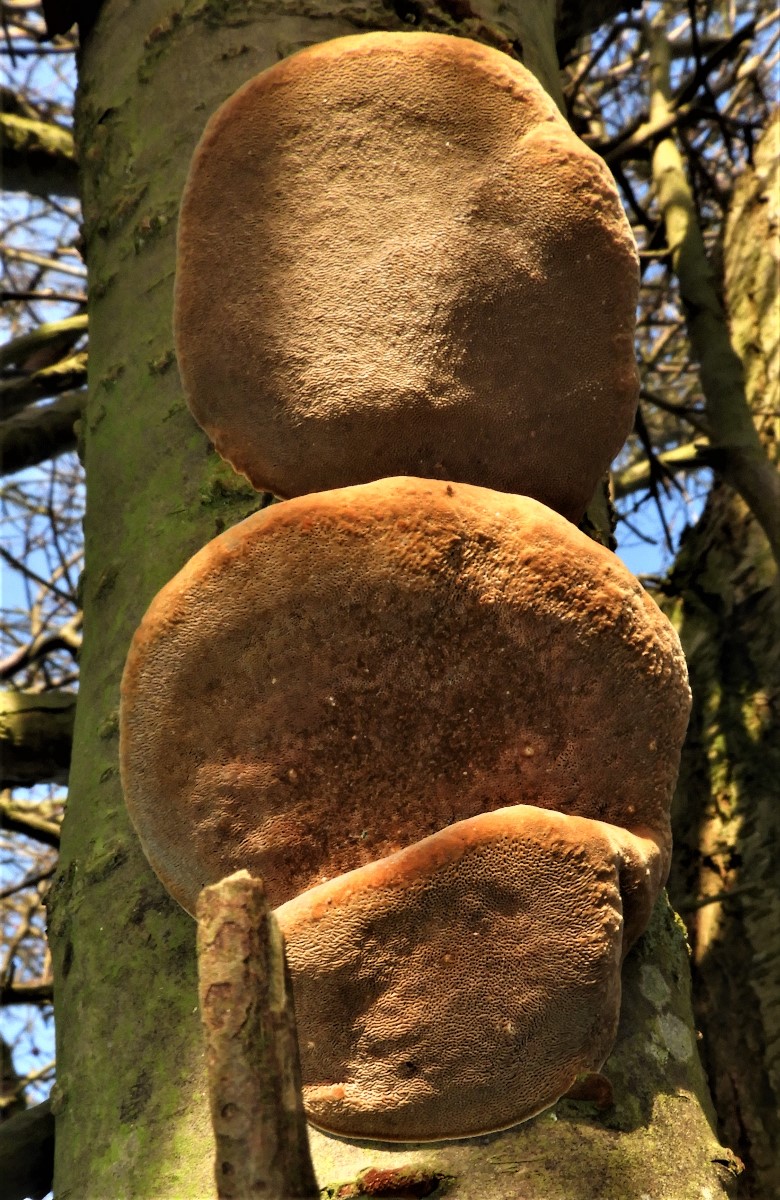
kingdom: Fungi
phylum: Basidiomycota
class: Agaricomycetes
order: Hymenochaetales
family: Hymenochaetaceae
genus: Phellinus
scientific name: Phellinus pomaceus
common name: blomme-ildporesvamp
